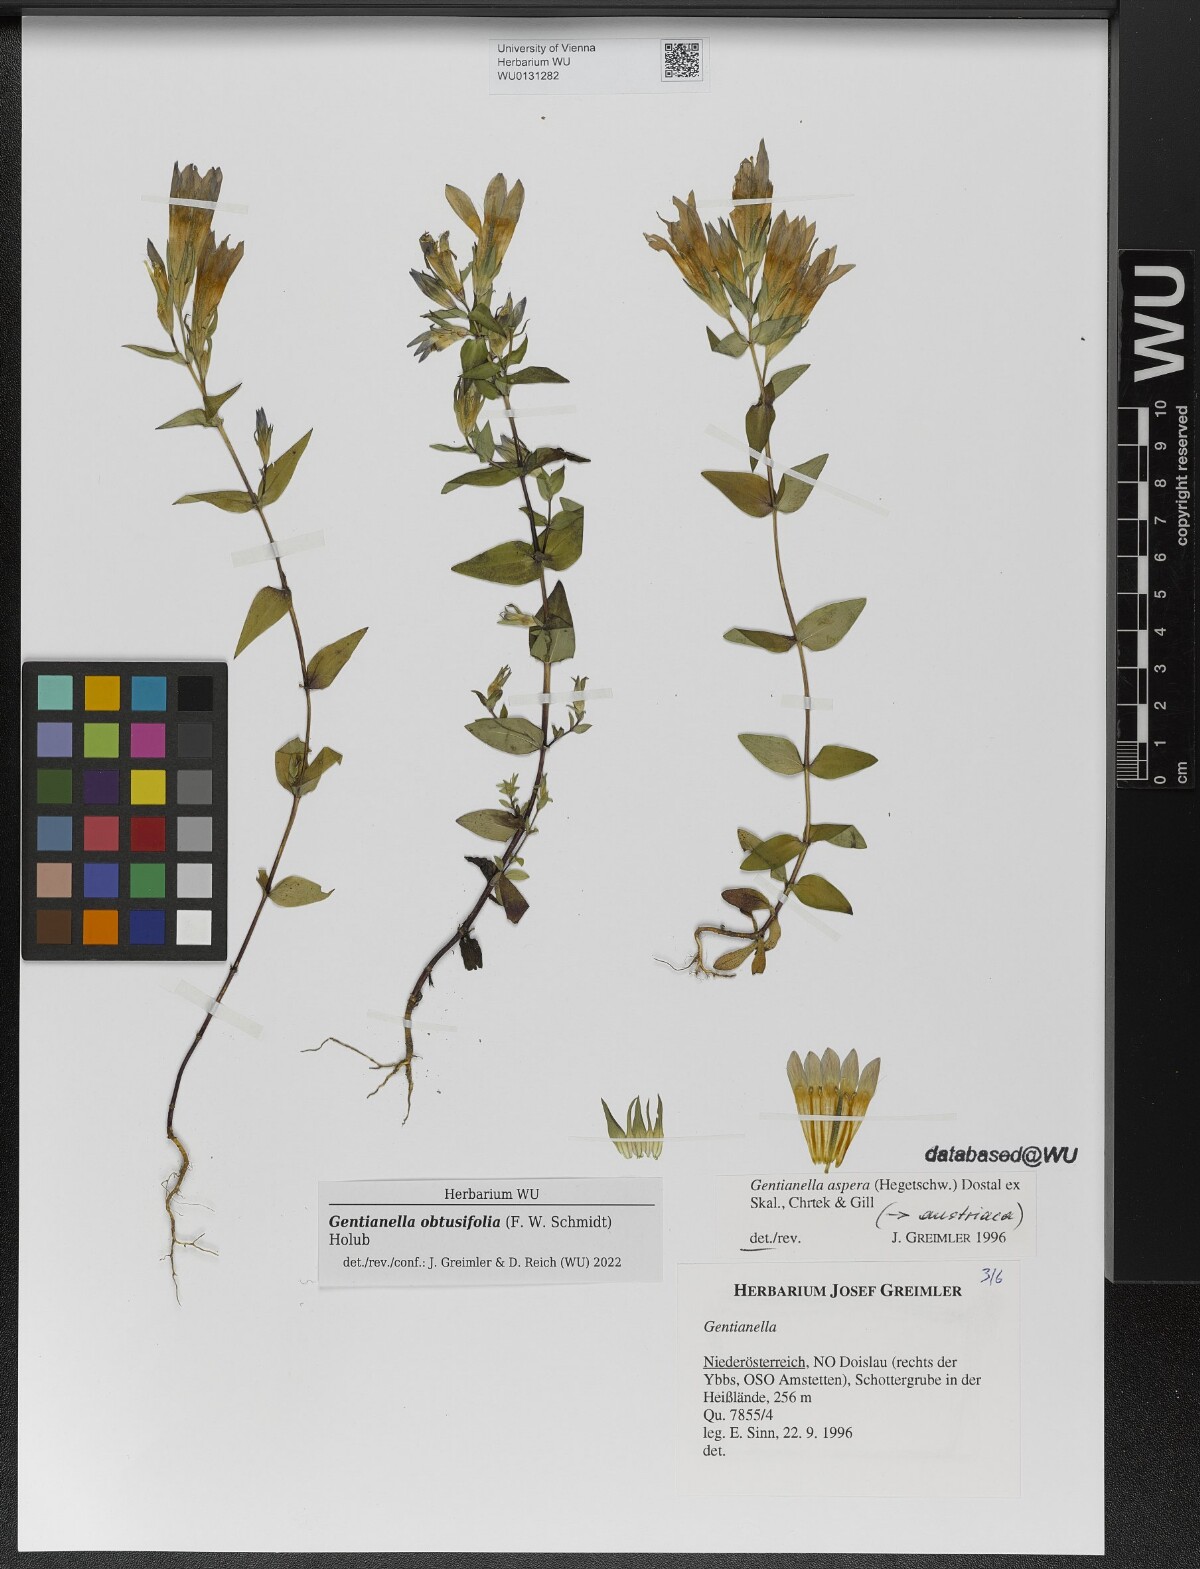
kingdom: Plantae
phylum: Tracheophyta
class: Magnoliopsida
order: Gentianales
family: Gentianaceae
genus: Gentianella
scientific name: Gentianella obtusifolia
